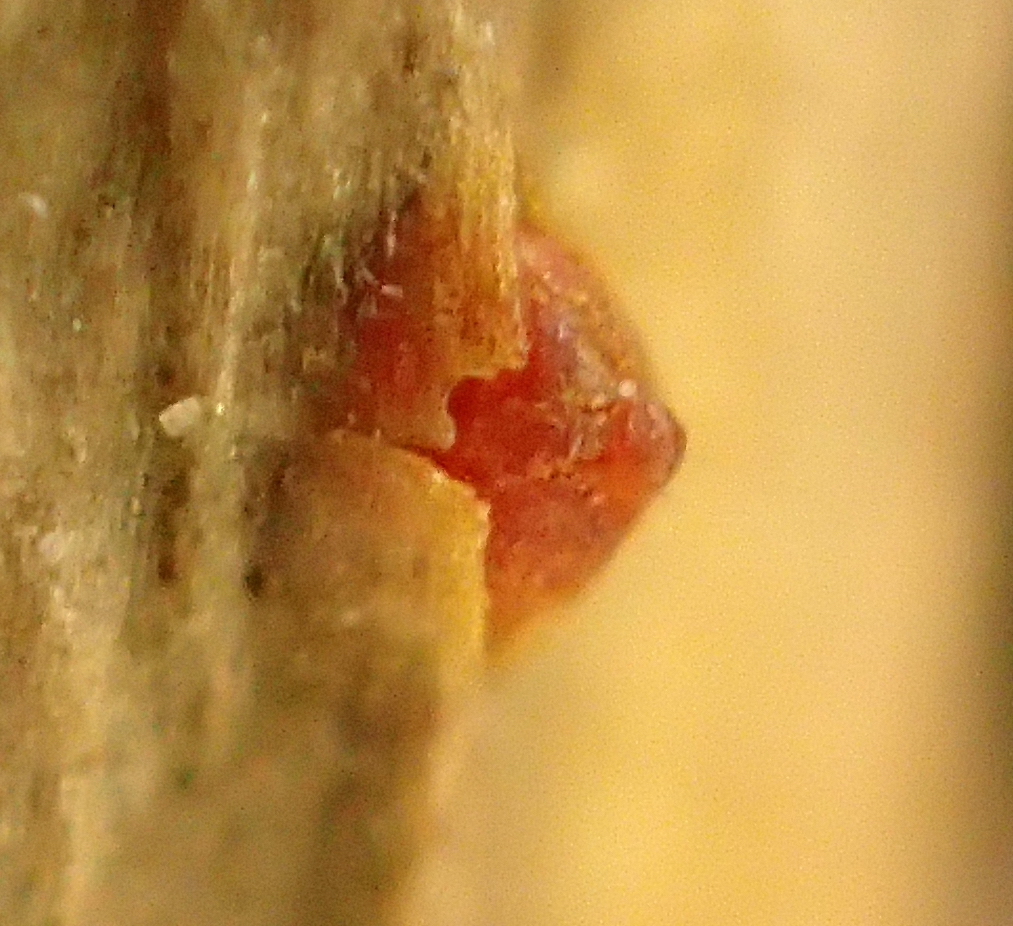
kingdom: Fungi
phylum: Ascomycota
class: Sordariomycetes
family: Thyridiaceae
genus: Thyronectria
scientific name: Thyronectria sinopica
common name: vedbend-cinnobersvamp
